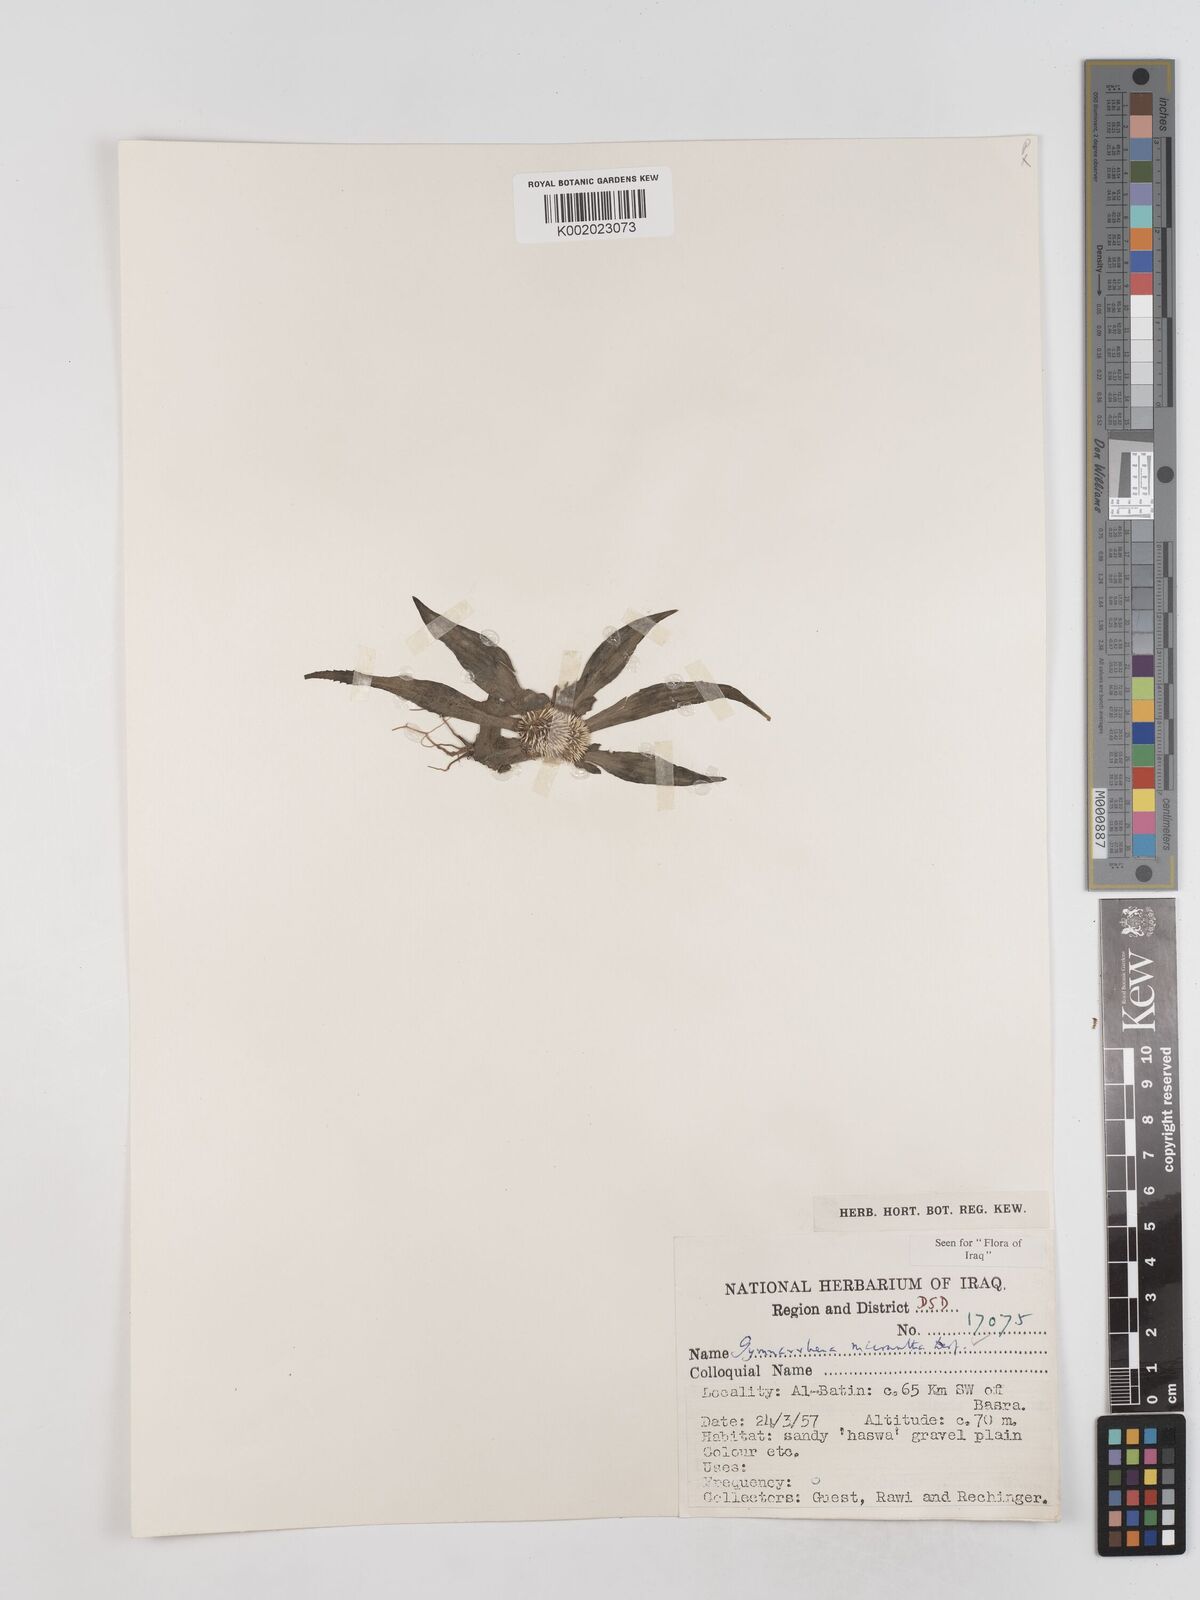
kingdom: Plantae
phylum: Tracheophyta
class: Magnoliopsida
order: Asterales
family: Asteraceae
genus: Gymnarrhena
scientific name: Gymnarrhena micrantha
